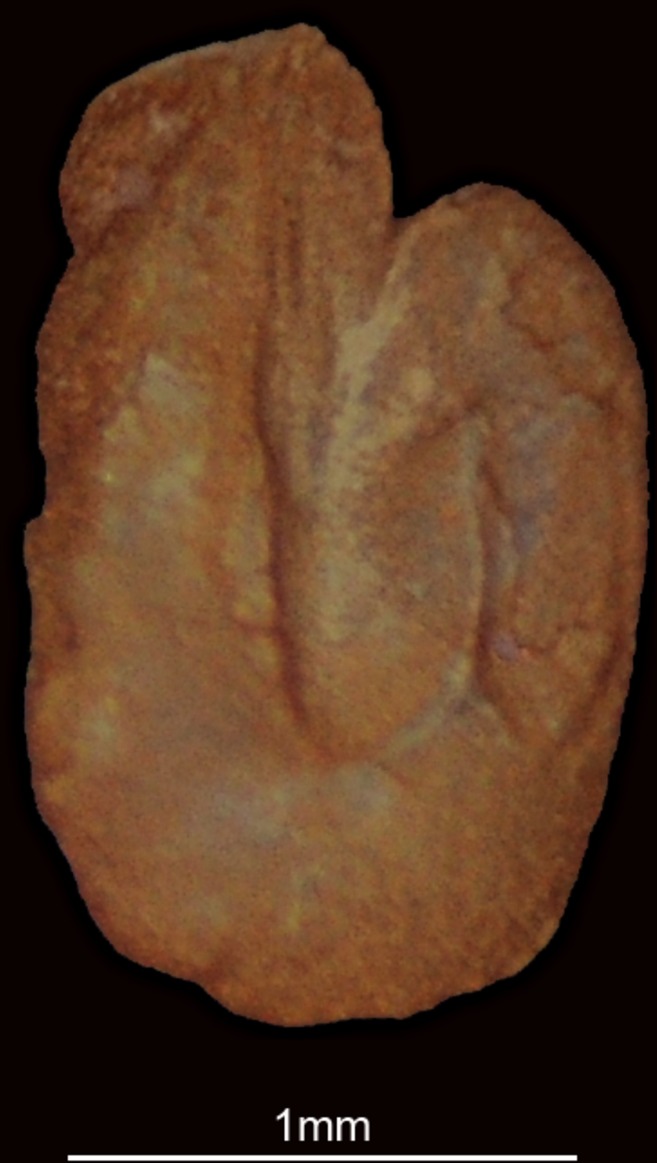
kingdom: Animalia
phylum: Chordata
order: Clupeiformes
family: Clupeidae
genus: Sardinella
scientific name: Sardinella albella
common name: White sardinella
